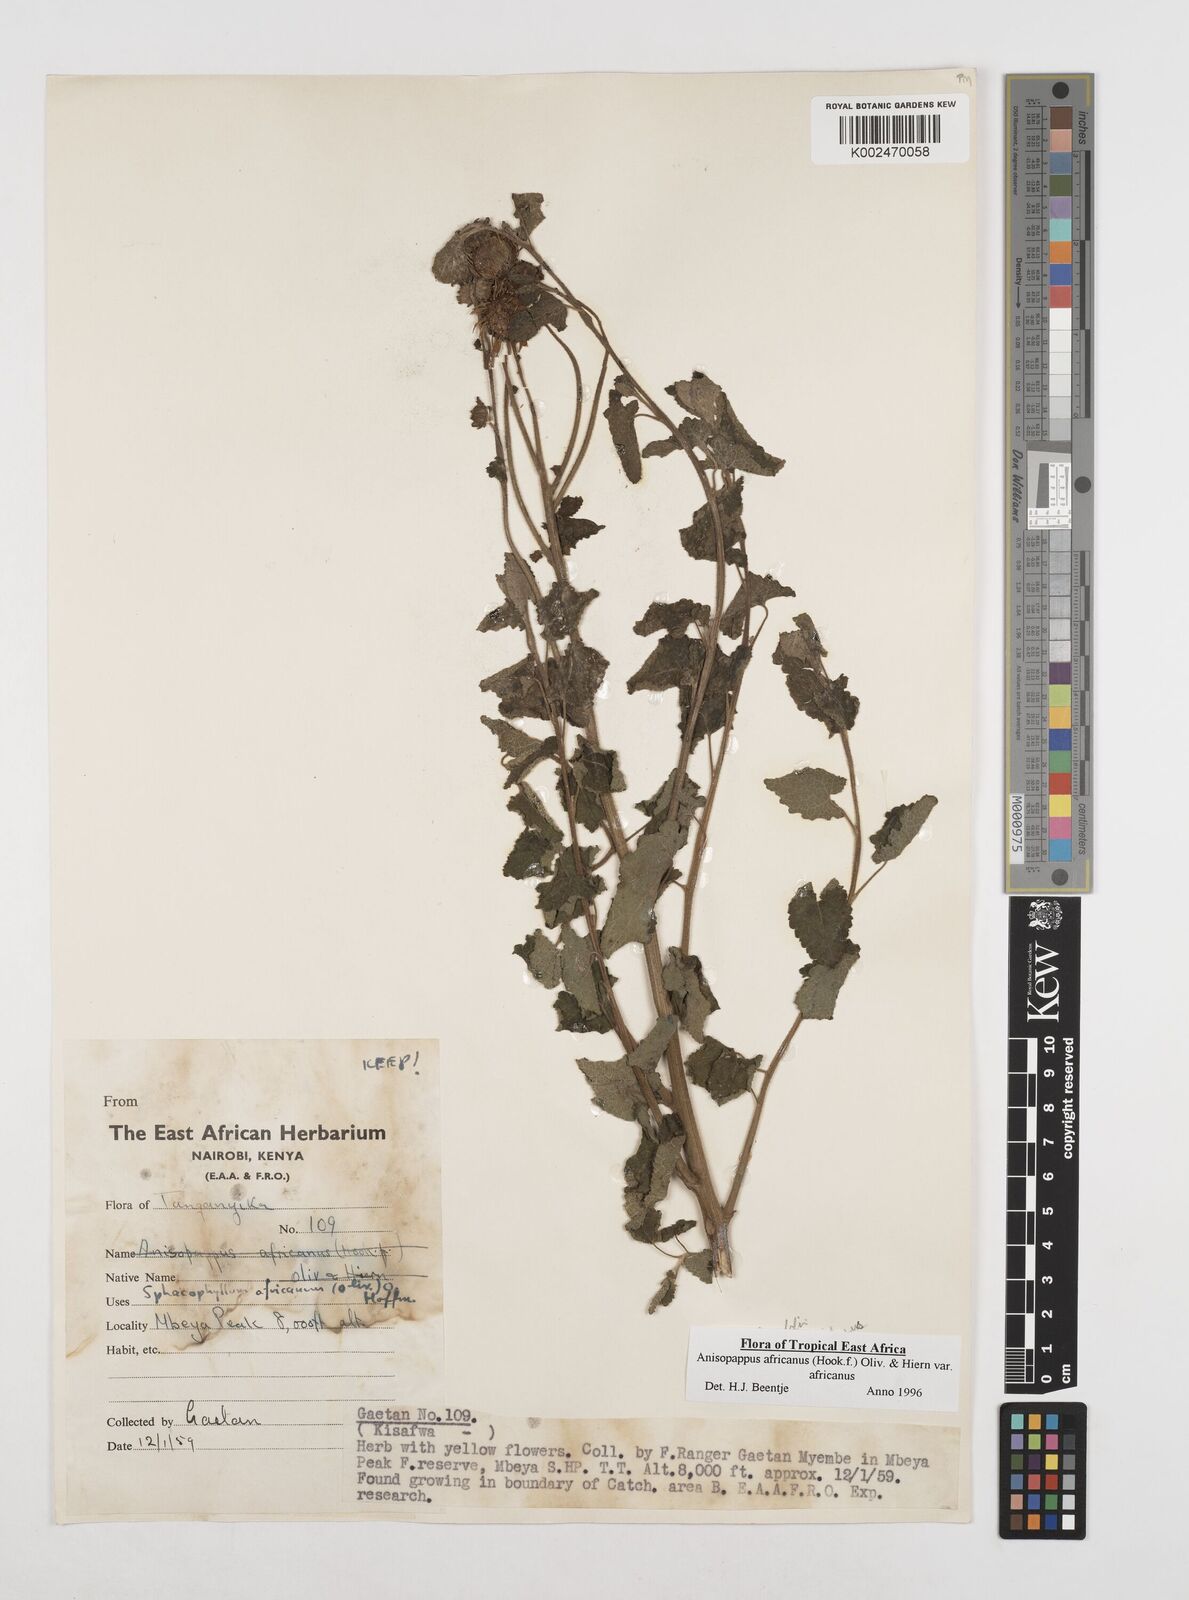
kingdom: Plantae
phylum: Tracheophyta
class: Magnoliopsida
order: Asterales
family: Asteraceae
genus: Anisopappus
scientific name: Anisopappus buchwaldii
